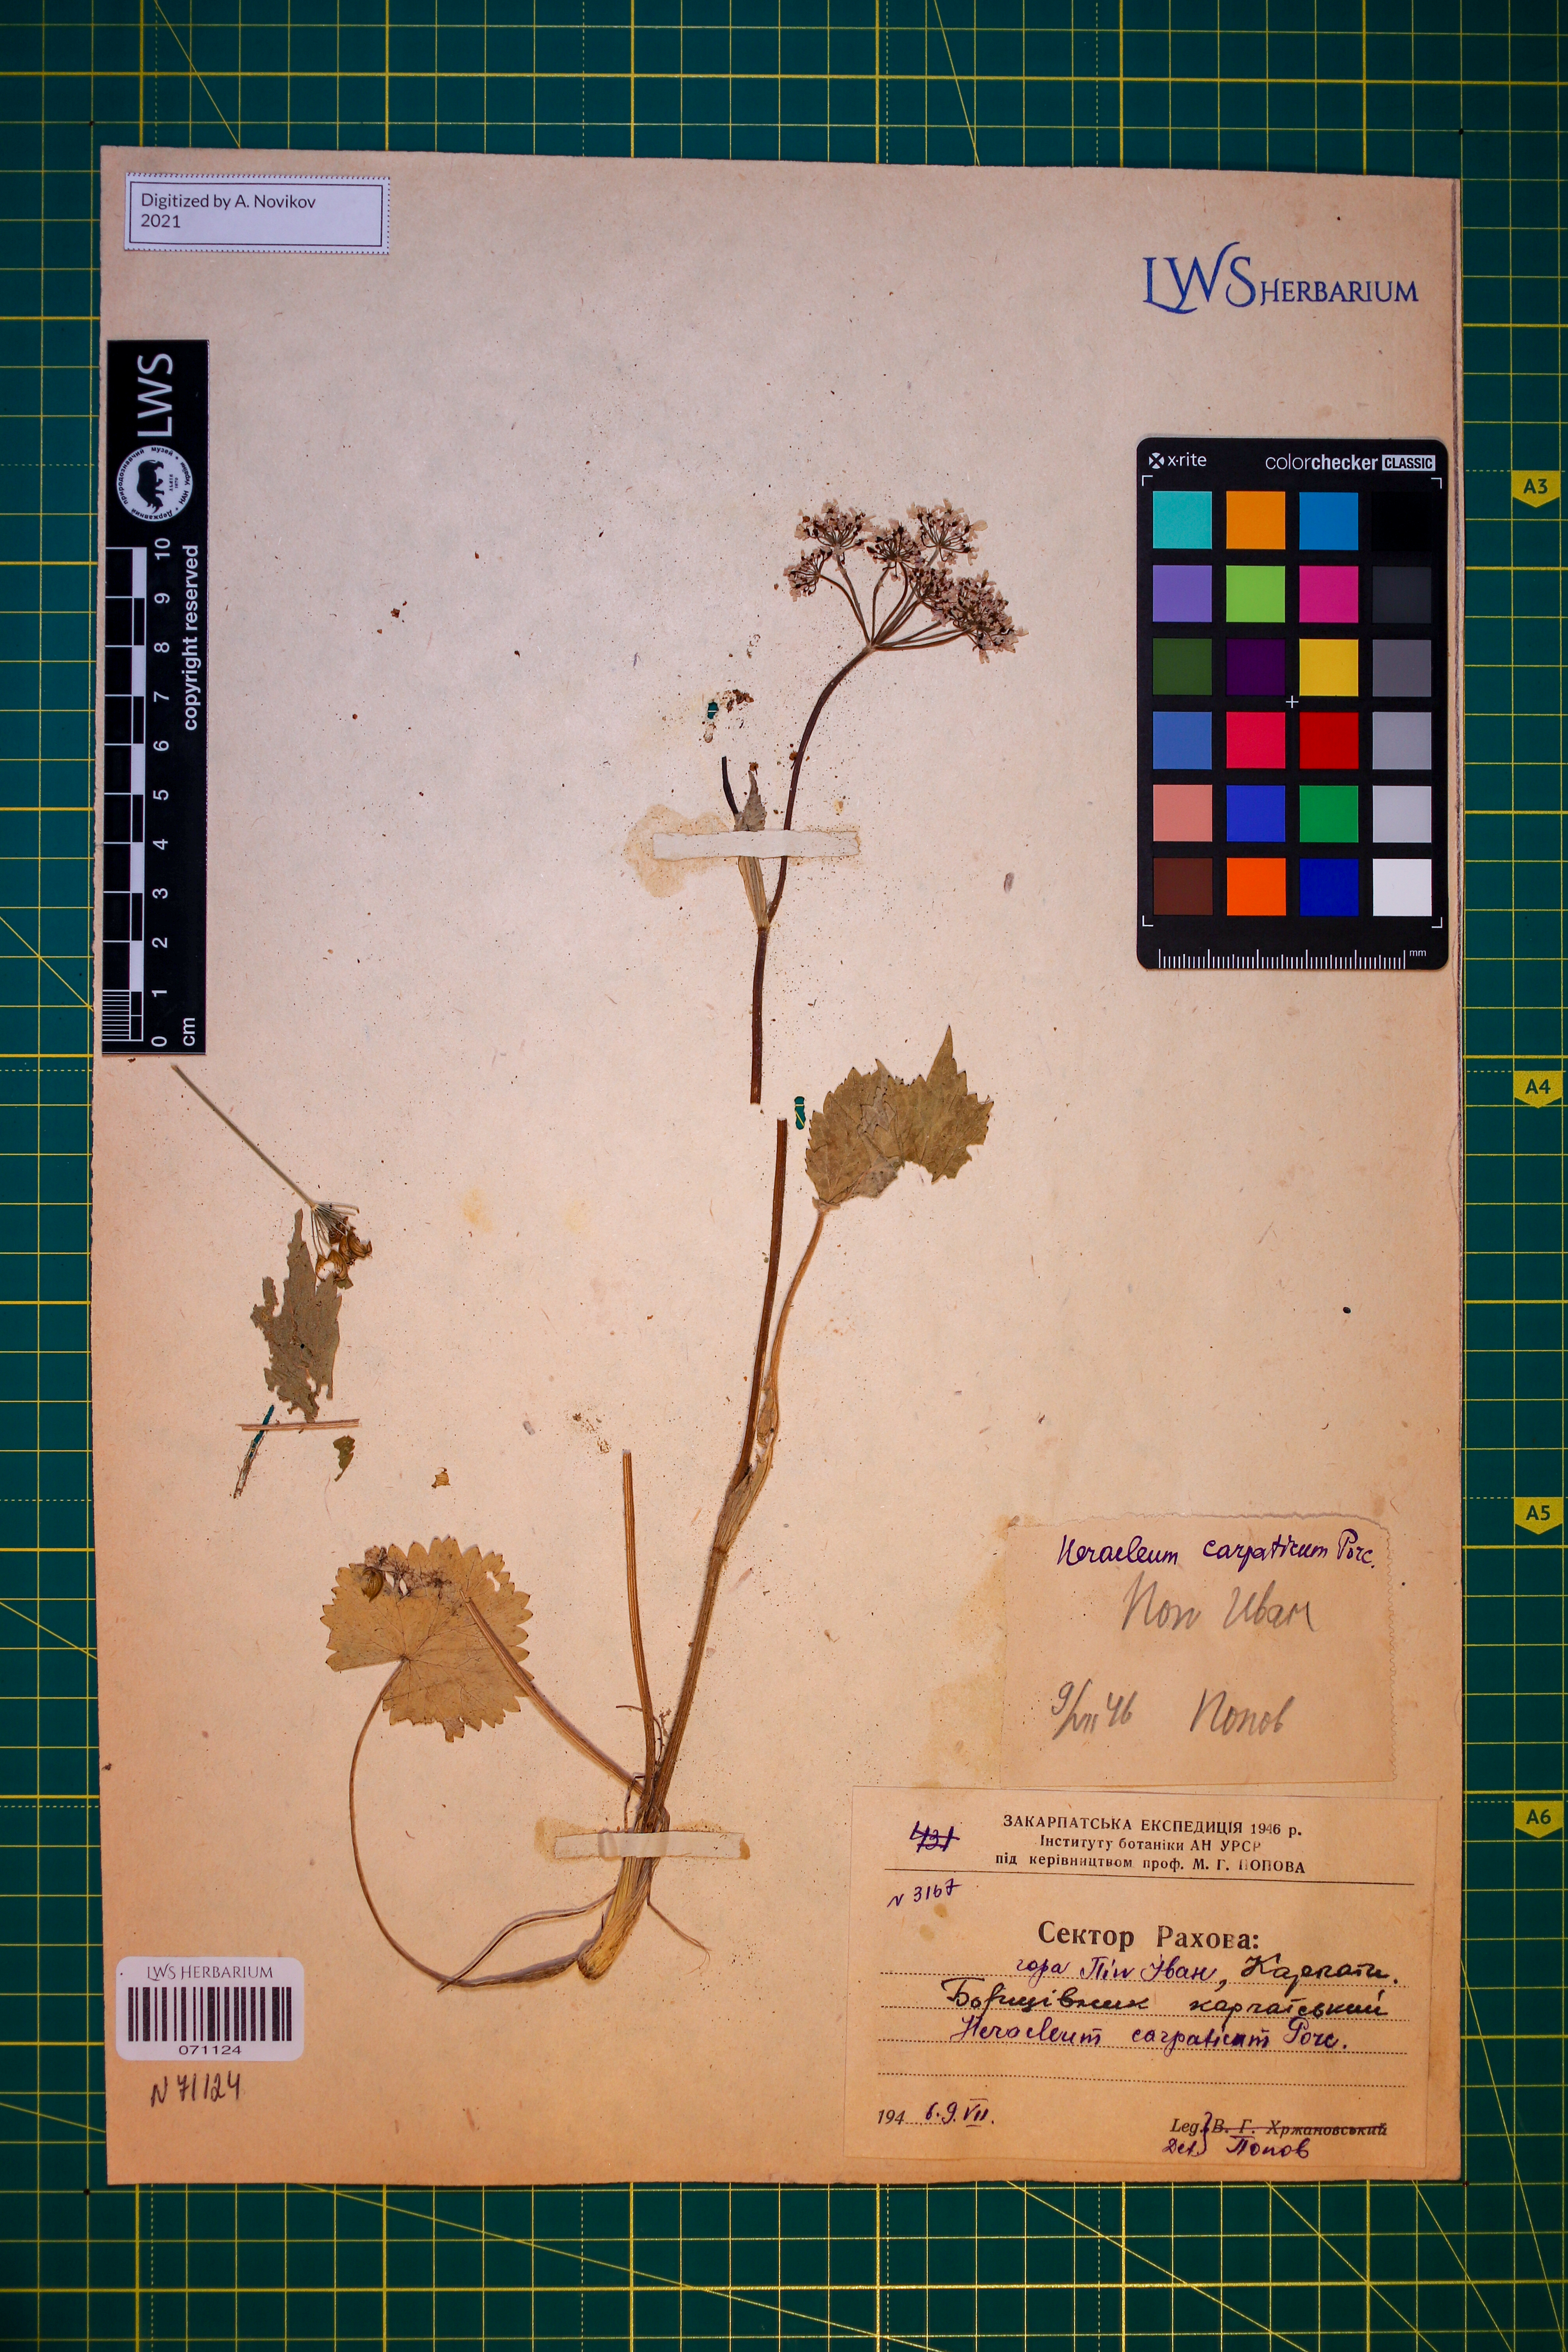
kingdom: Plantae
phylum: Tracheophyta
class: Magnoliopsida
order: Apiales
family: Apiaceae
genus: Heracleum
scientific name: Heracleum carpaticum
